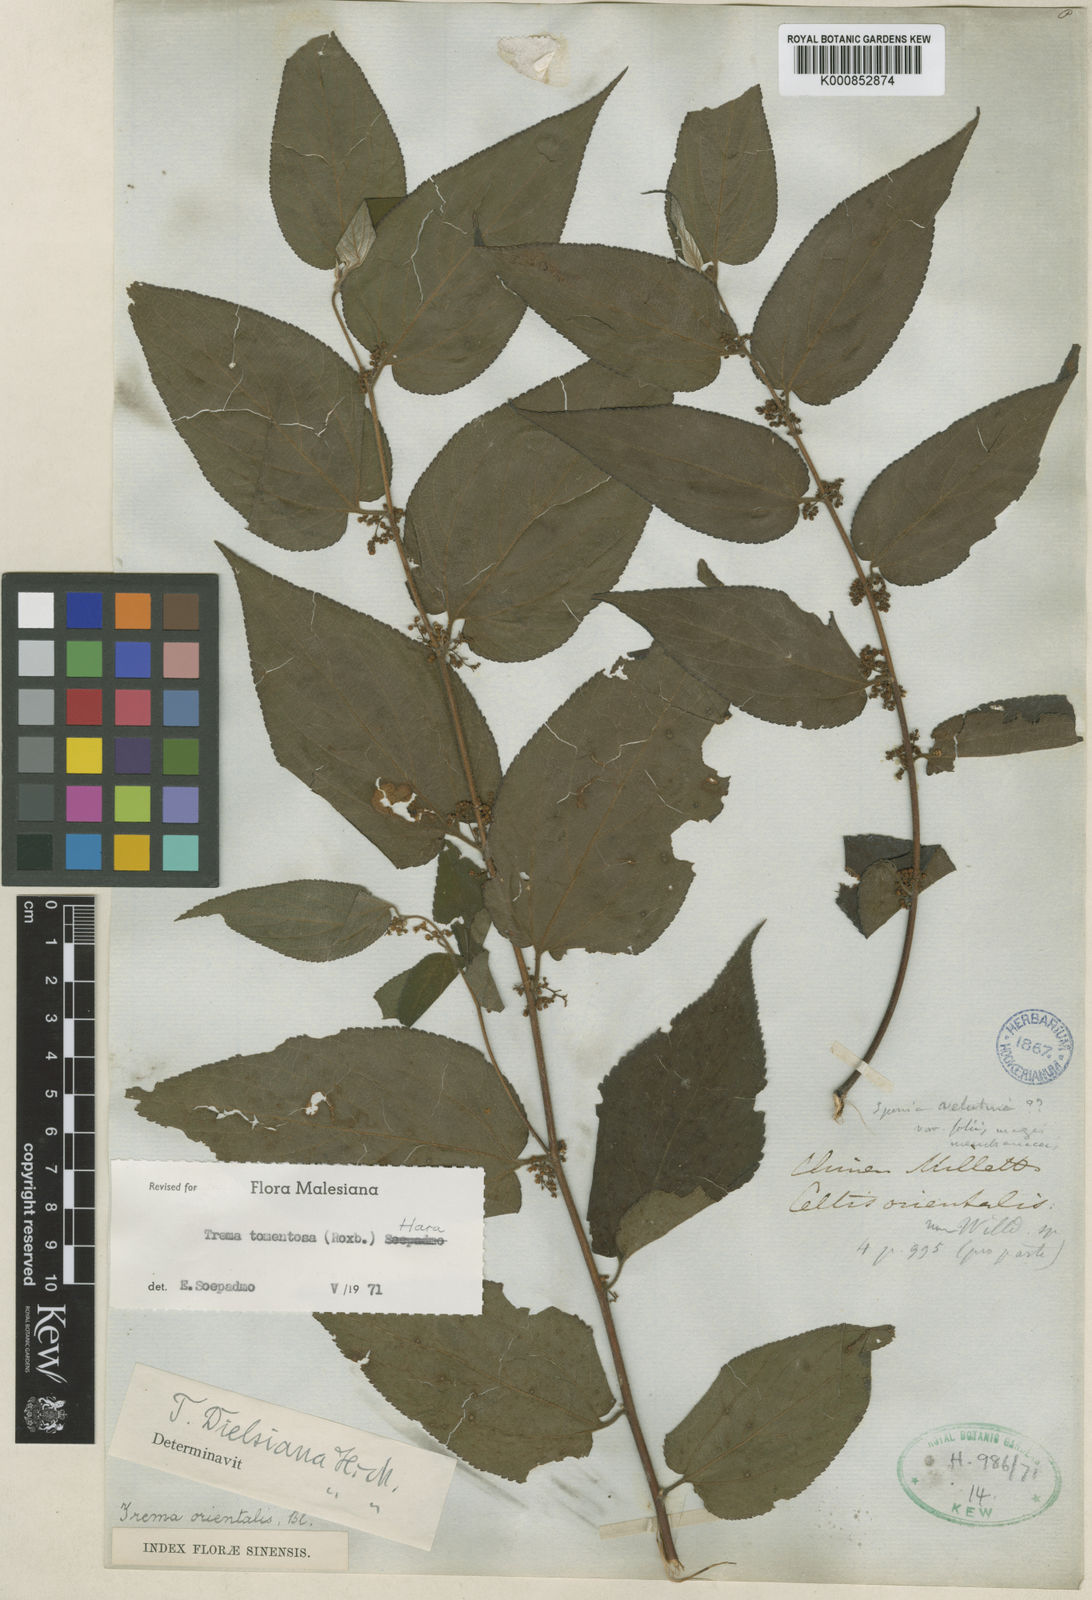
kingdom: Plantae
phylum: Tracheophyta
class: Magnoliopsida
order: Rosales
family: Cannabaceae
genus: Trema
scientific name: Trema tomentosum
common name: Peach-leaf-poisonbush
